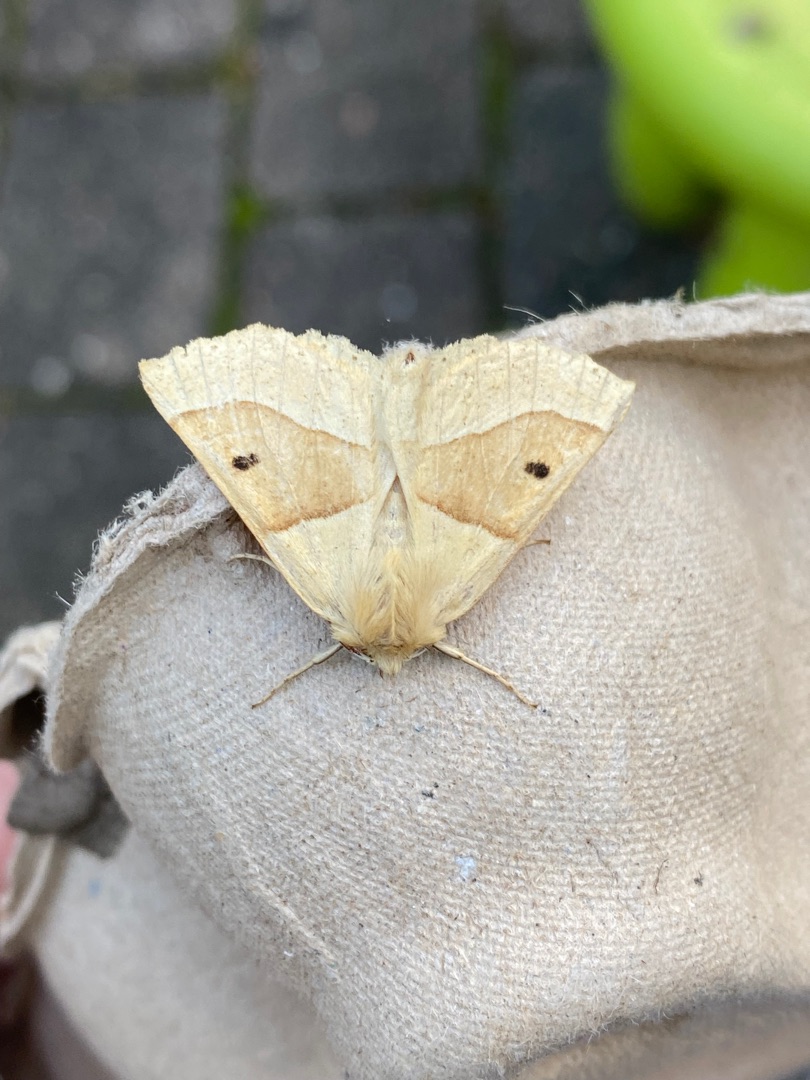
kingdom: Animalia
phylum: Arthropoda
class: Insecta
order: Lepidoptera
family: Geometridae
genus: Crocallis
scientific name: Crocallis elinguaria
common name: Okkergul rovmåler
